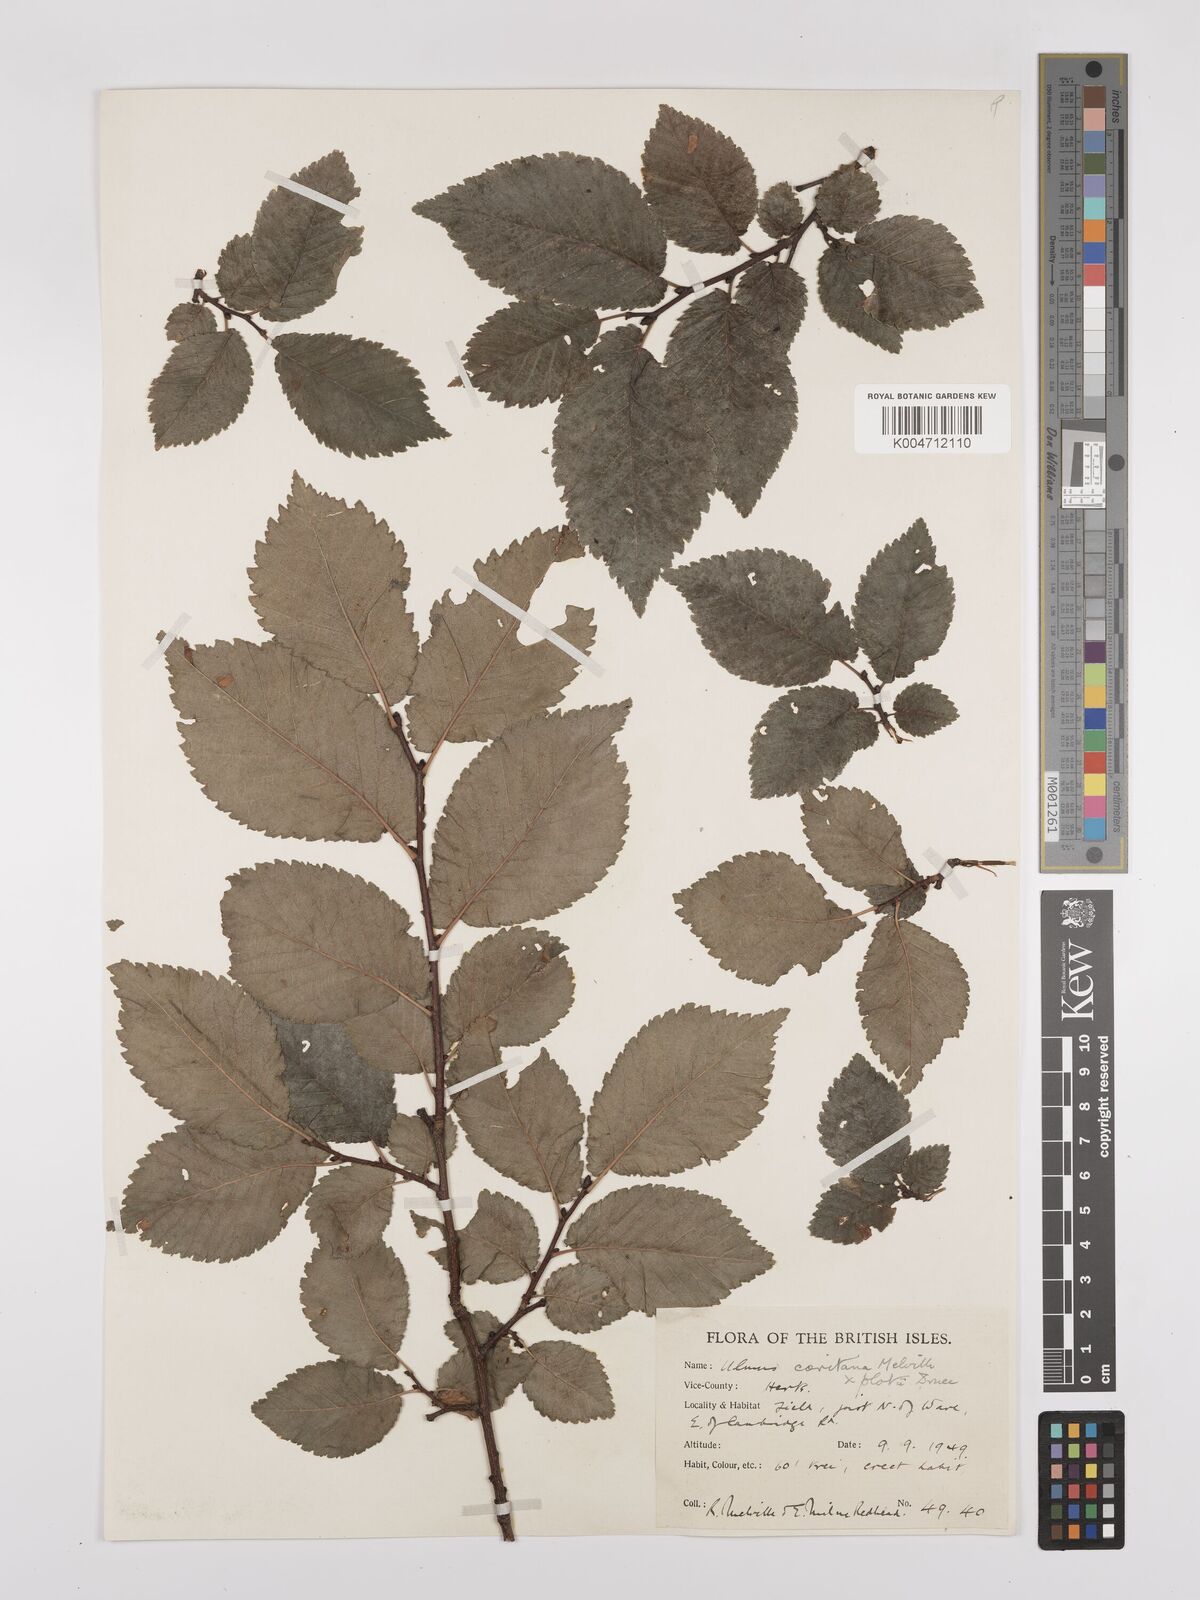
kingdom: Plantae
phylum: Tracheophyta
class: Magnoliopsida
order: Rosales
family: Ulmaceae
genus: Ulmus
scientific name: Ulmus minor
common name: Small-leaved elm
